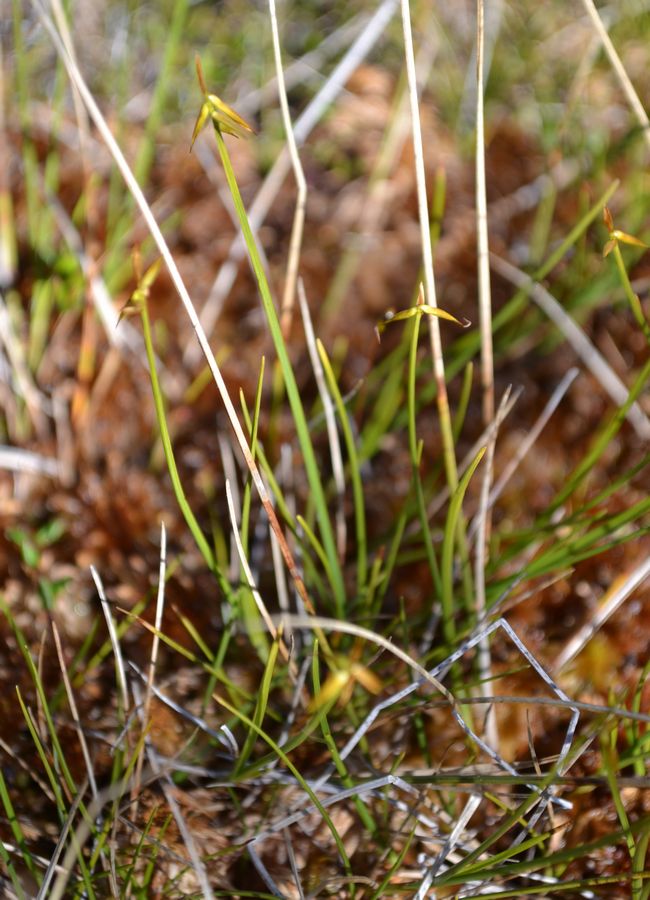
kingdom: Plantae
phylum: Tracheophyta
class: Liliopsida
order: Poales
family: Cyperaceae
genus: Carex
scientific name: Carex pauciflora
